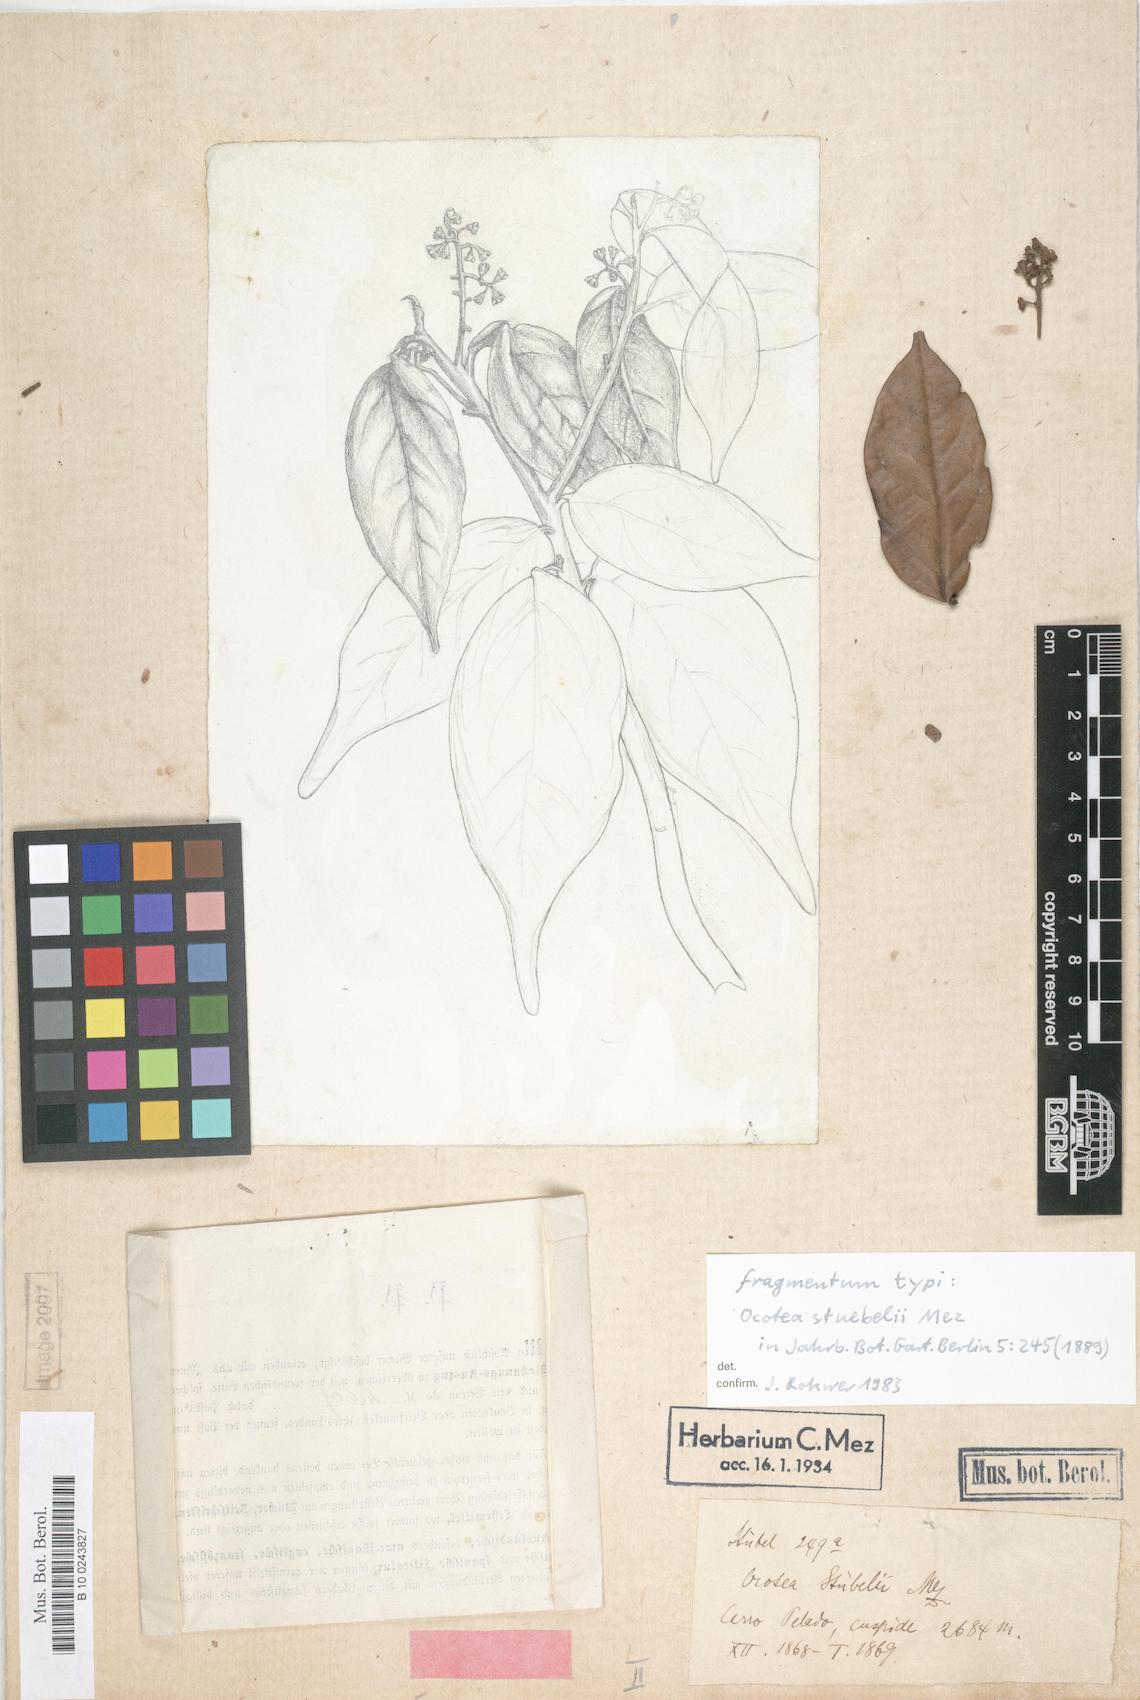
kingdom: Plantae
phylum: Tracheophyta
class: Magnoliopsida
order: Laurales
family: Lauraceae
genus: Ocotea
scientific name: Ocotea stuebelii
